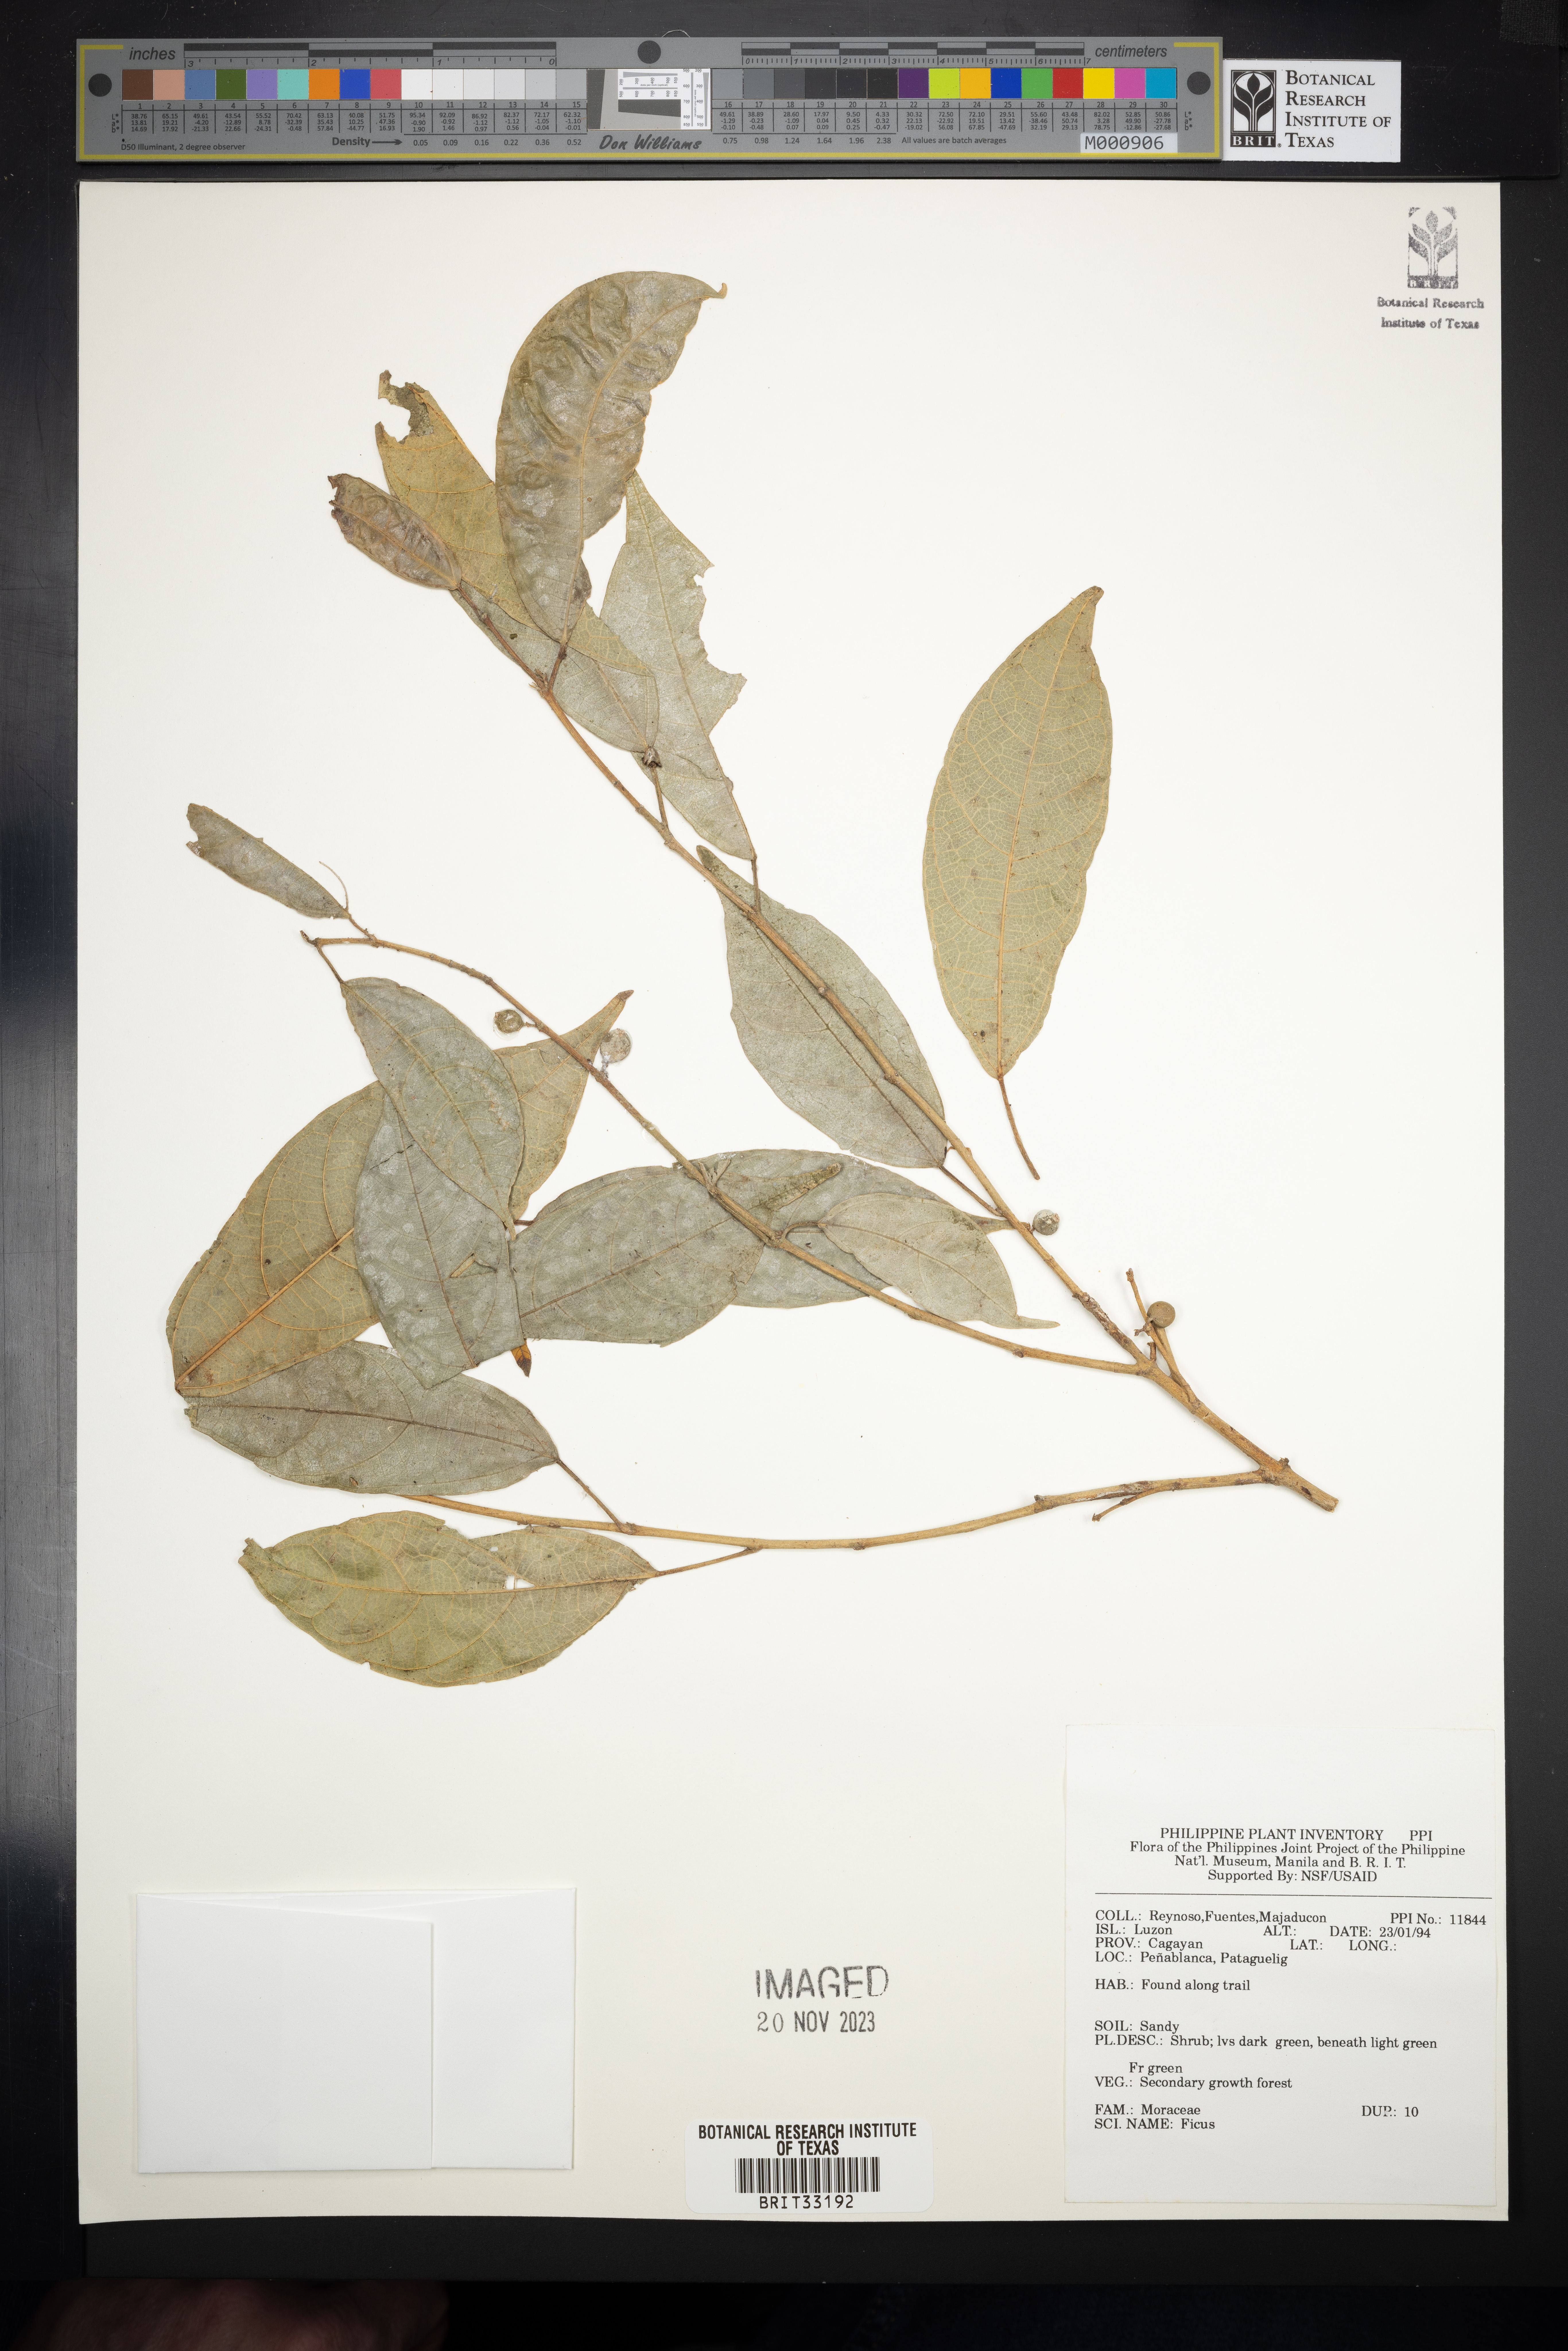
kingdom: Plantae
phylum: Tracheophyta
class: Magnoliopsida
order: Rosales
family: Moraceae
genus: Ficus
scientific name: Ficus
